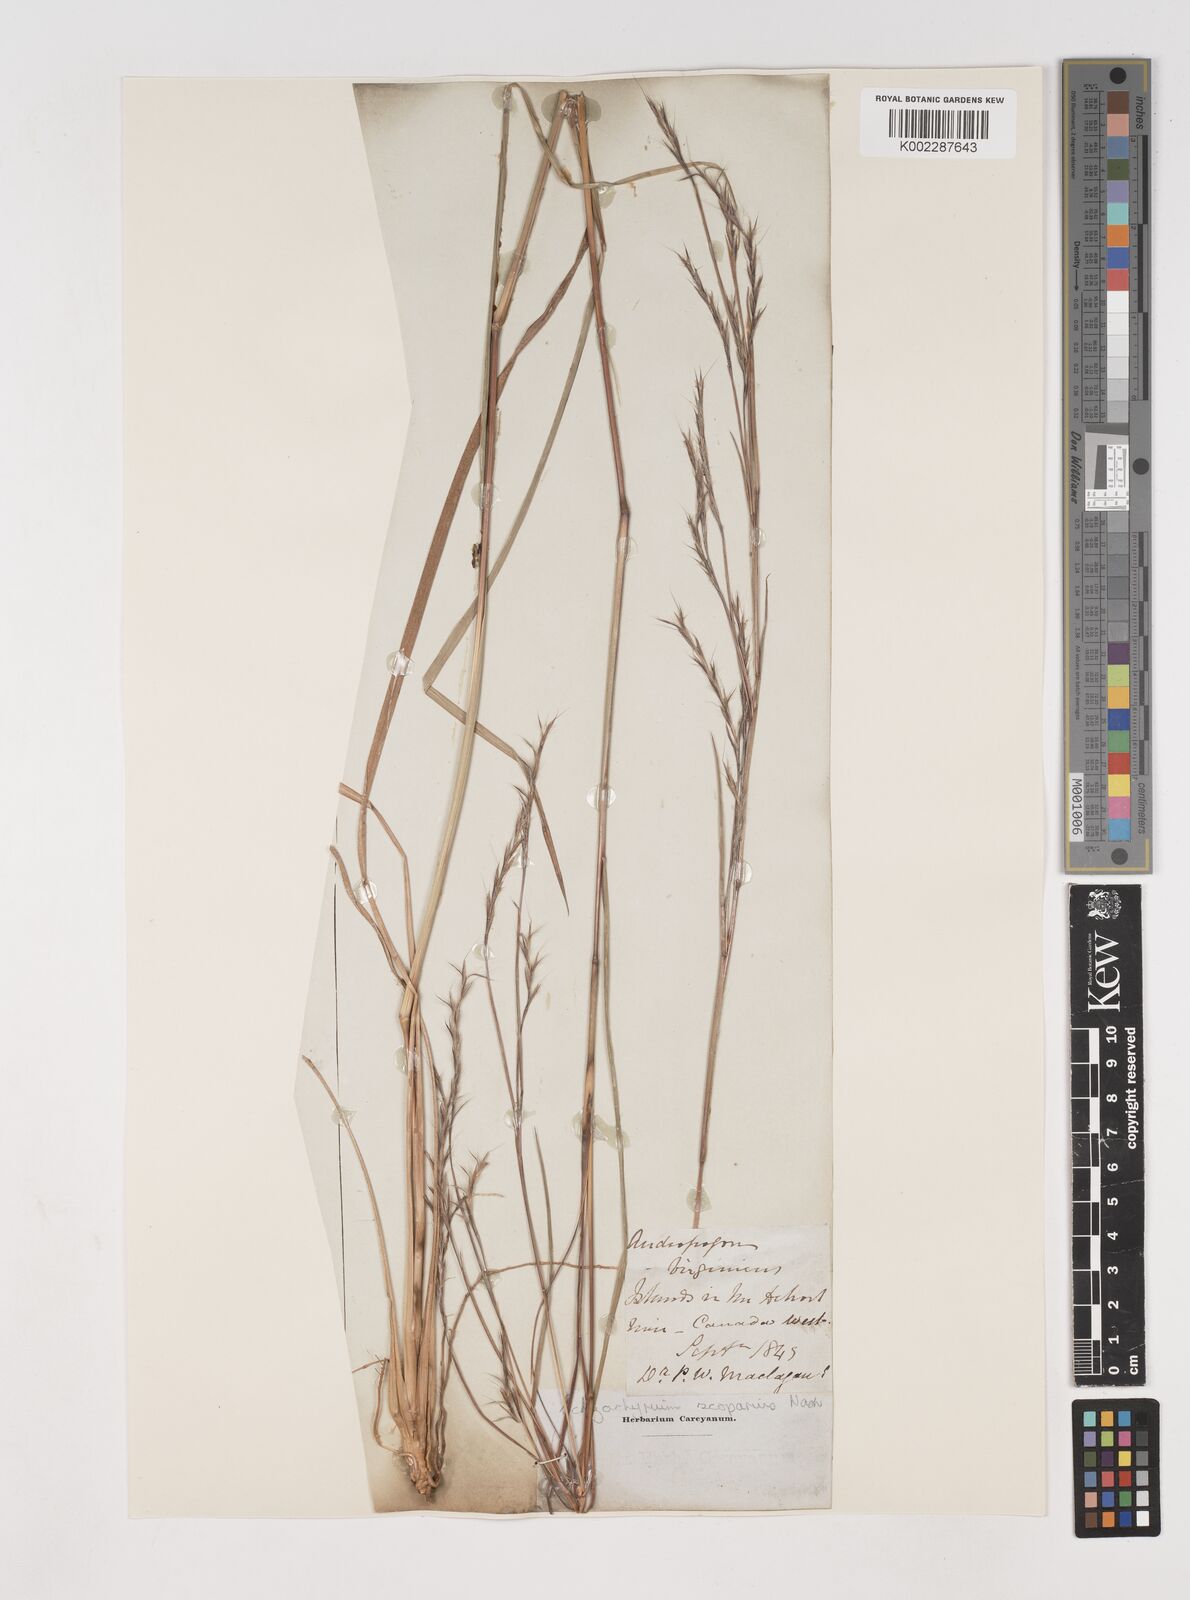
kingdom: Plantae
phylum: Tracheophyta
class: Liliopsida
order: Poales
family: Poaceae
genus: Schizachyrium
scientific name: Schizachyrium scoparium
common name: Little bluestem
